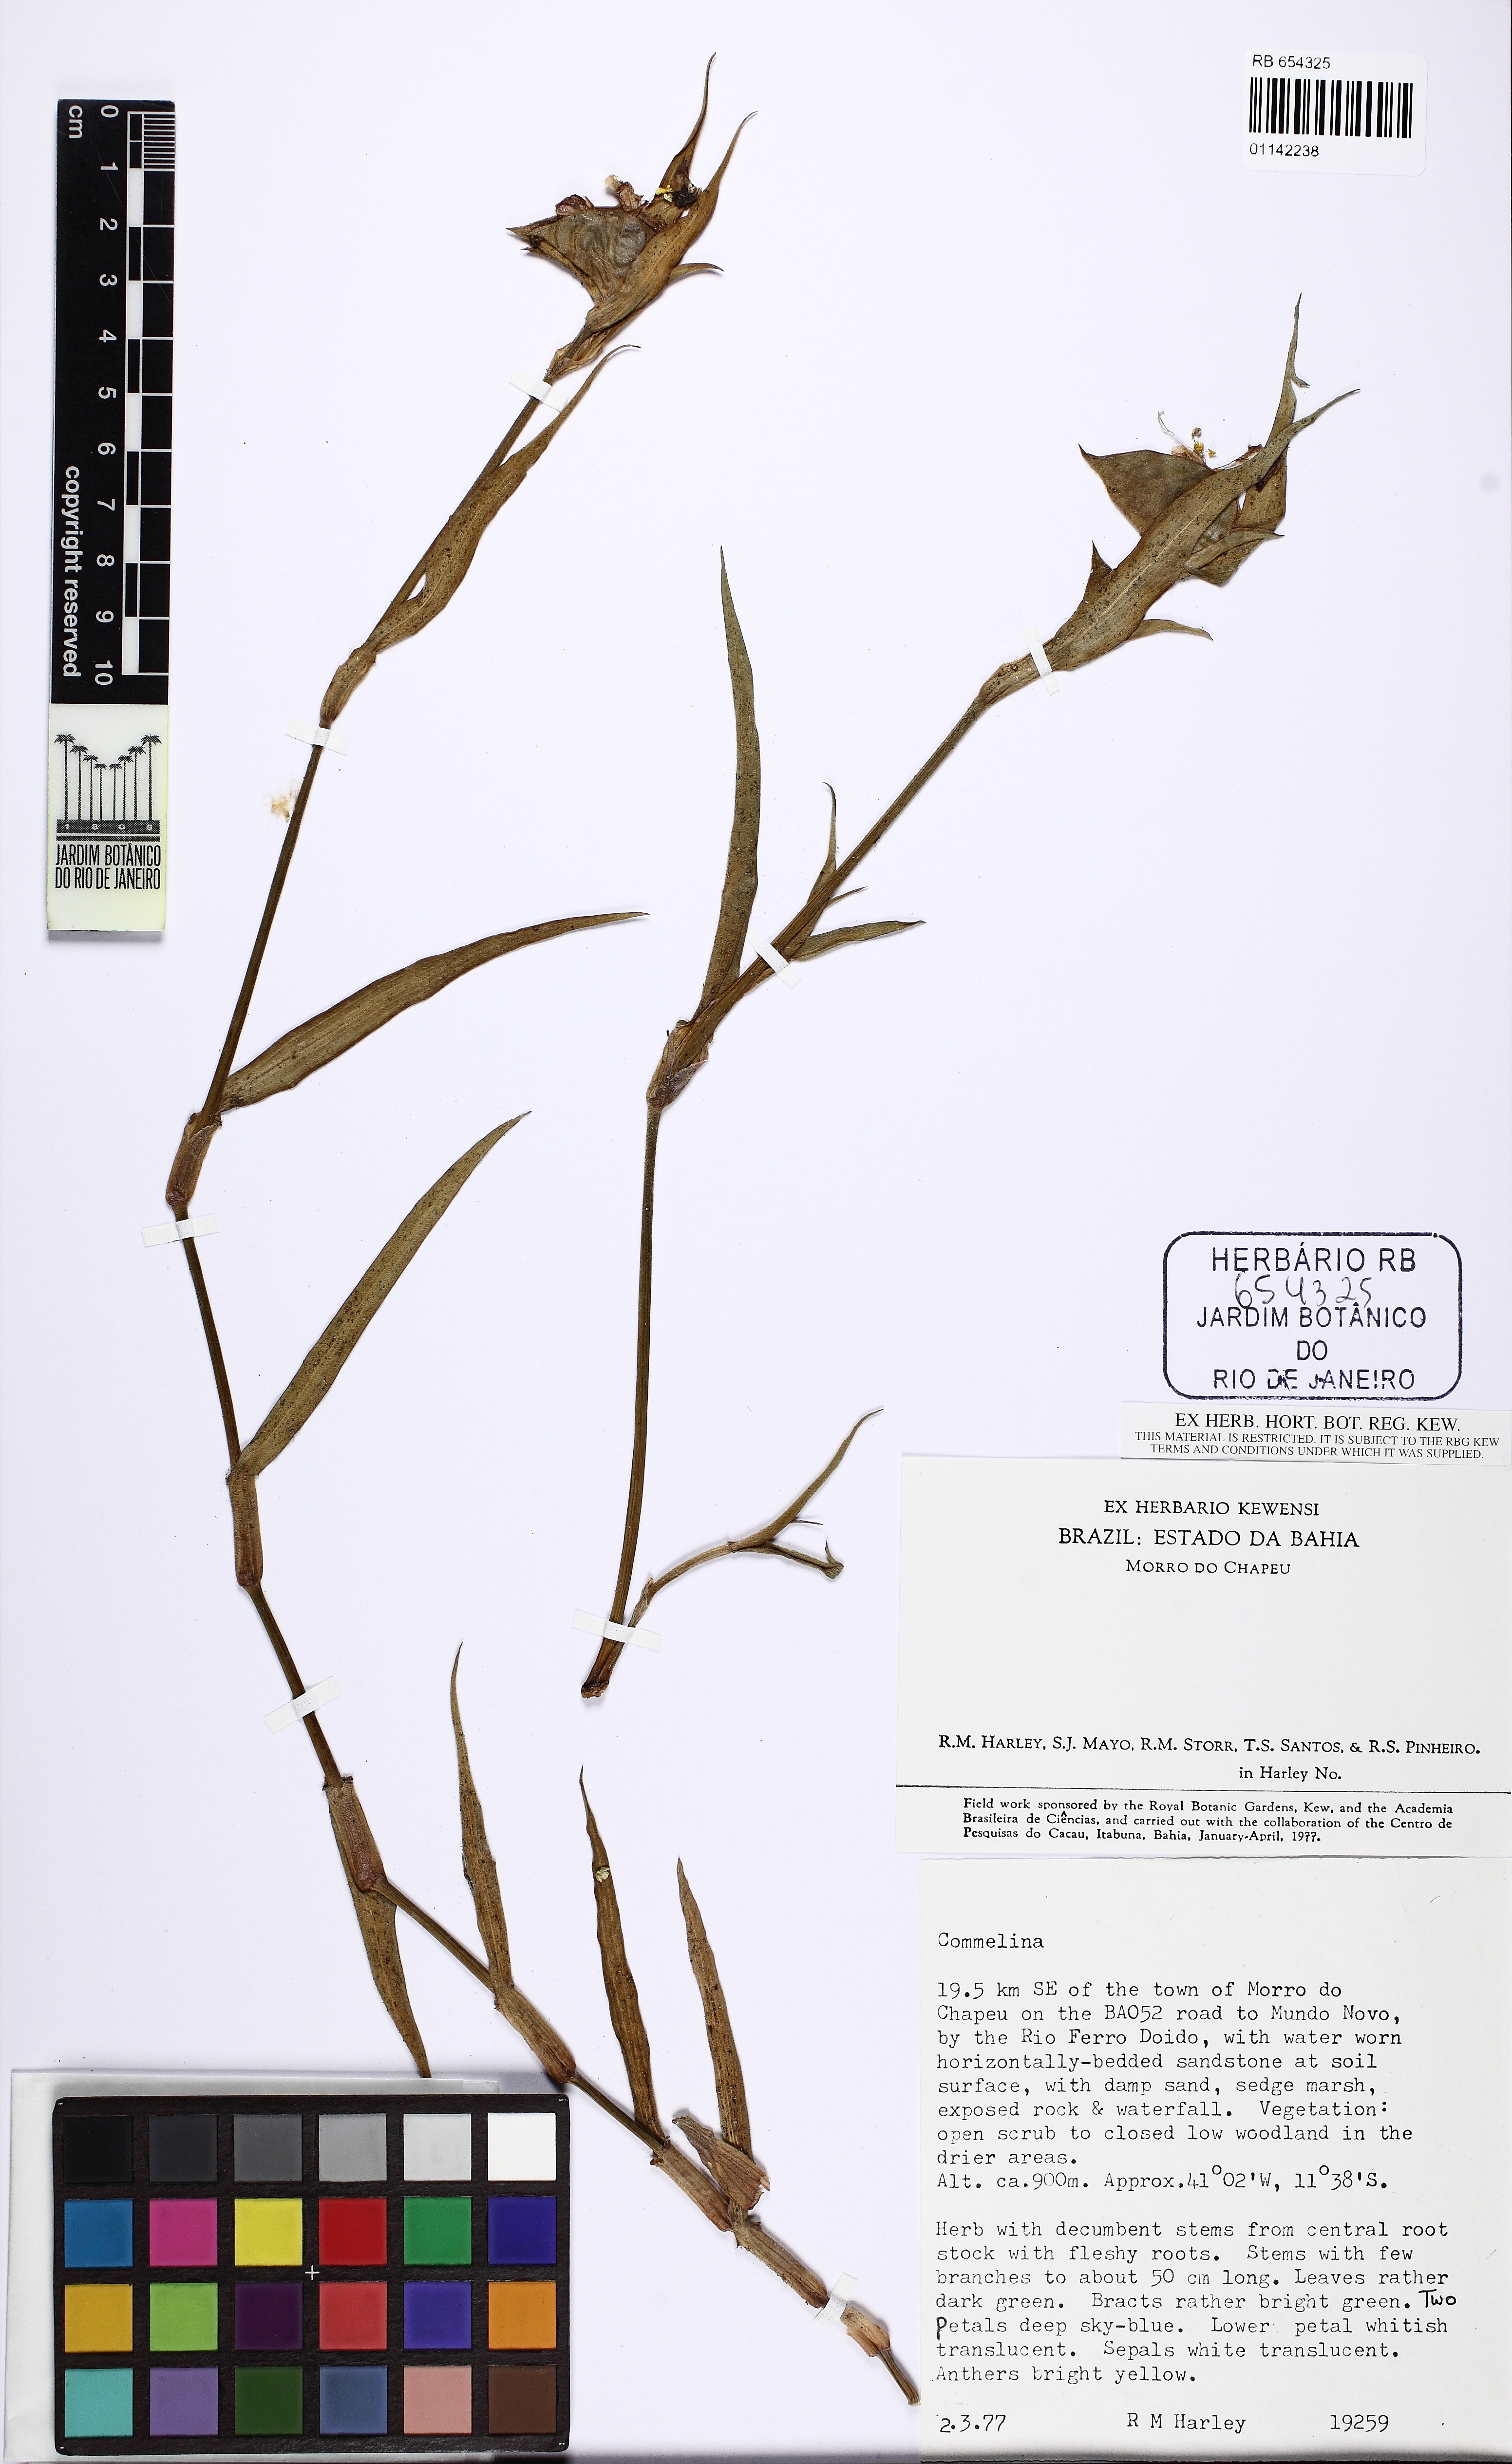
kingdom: Plantae
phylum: Tracheophyta
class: Liliopsida
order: Commelinales
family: Commelinaceae
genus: Commelina
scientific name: Commelina erecta
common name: Blousel blommetjie
